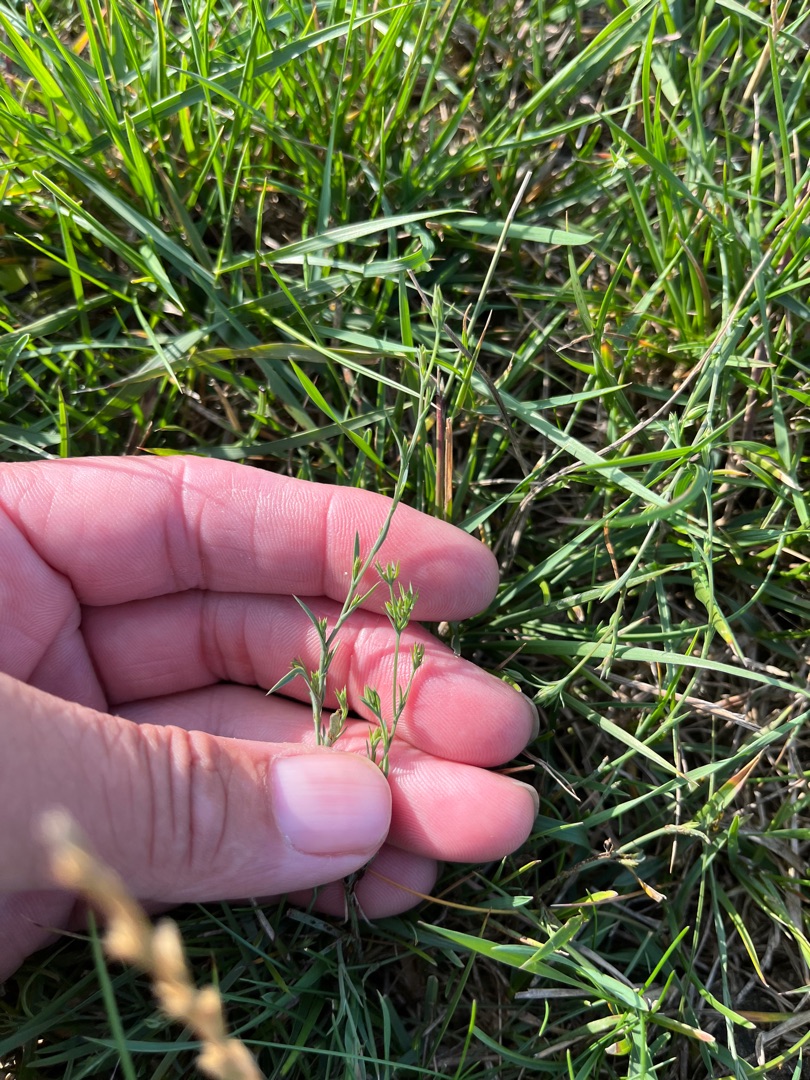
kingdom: Plantae
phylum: Tracheophyta
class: Magnoliopsida
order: Apiales
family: Apiaceae
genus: Bupleurum
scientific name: Bupleurum tenuissimum
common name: Smalbladet hareøre
